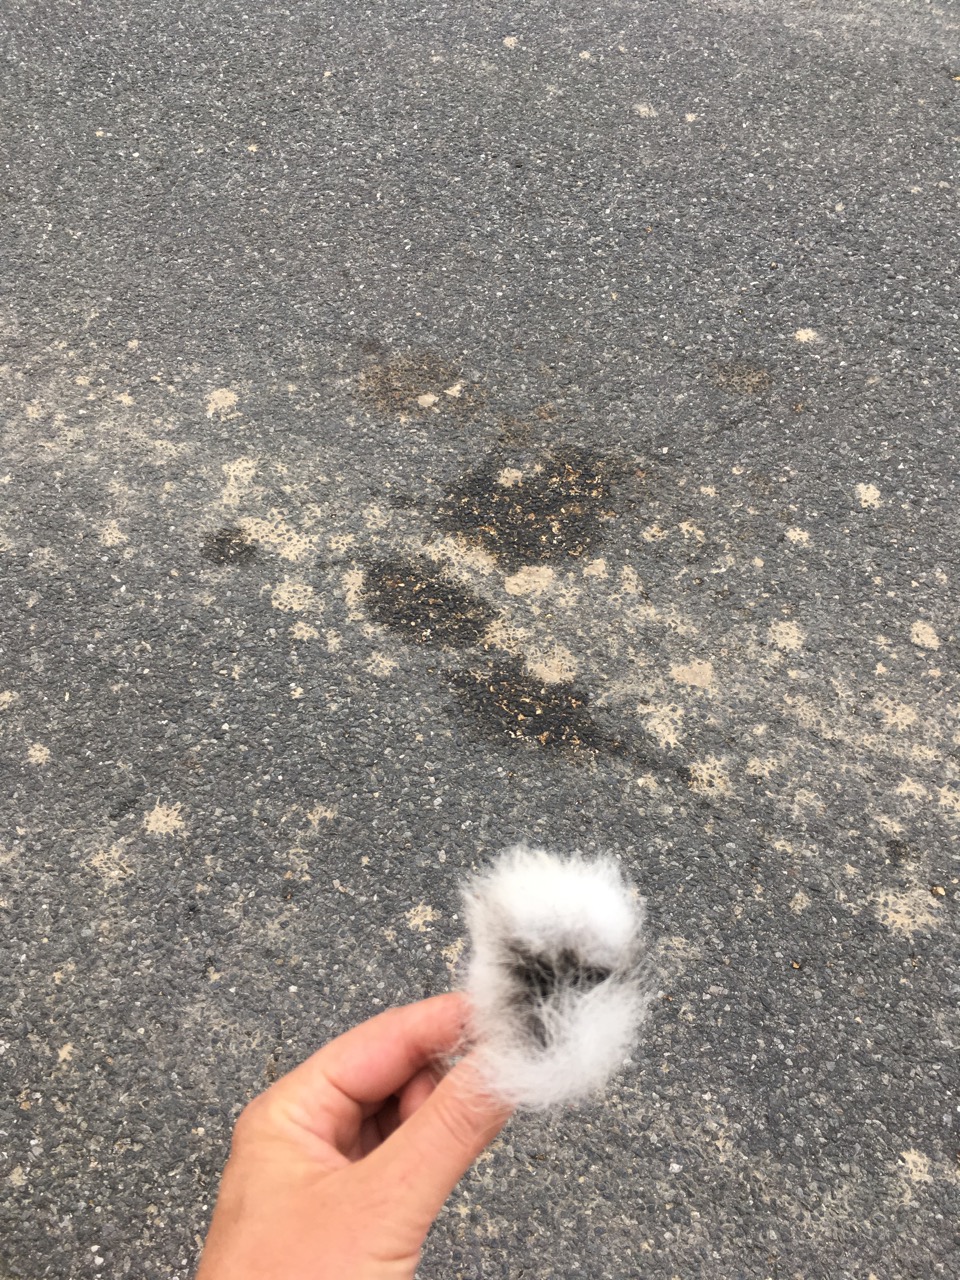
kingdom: Animalia
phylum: Chordata
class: Mammalia
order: Lagomorpha
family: Leporidae
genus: Lepus
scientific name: Lepus europaeus
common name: European hare
